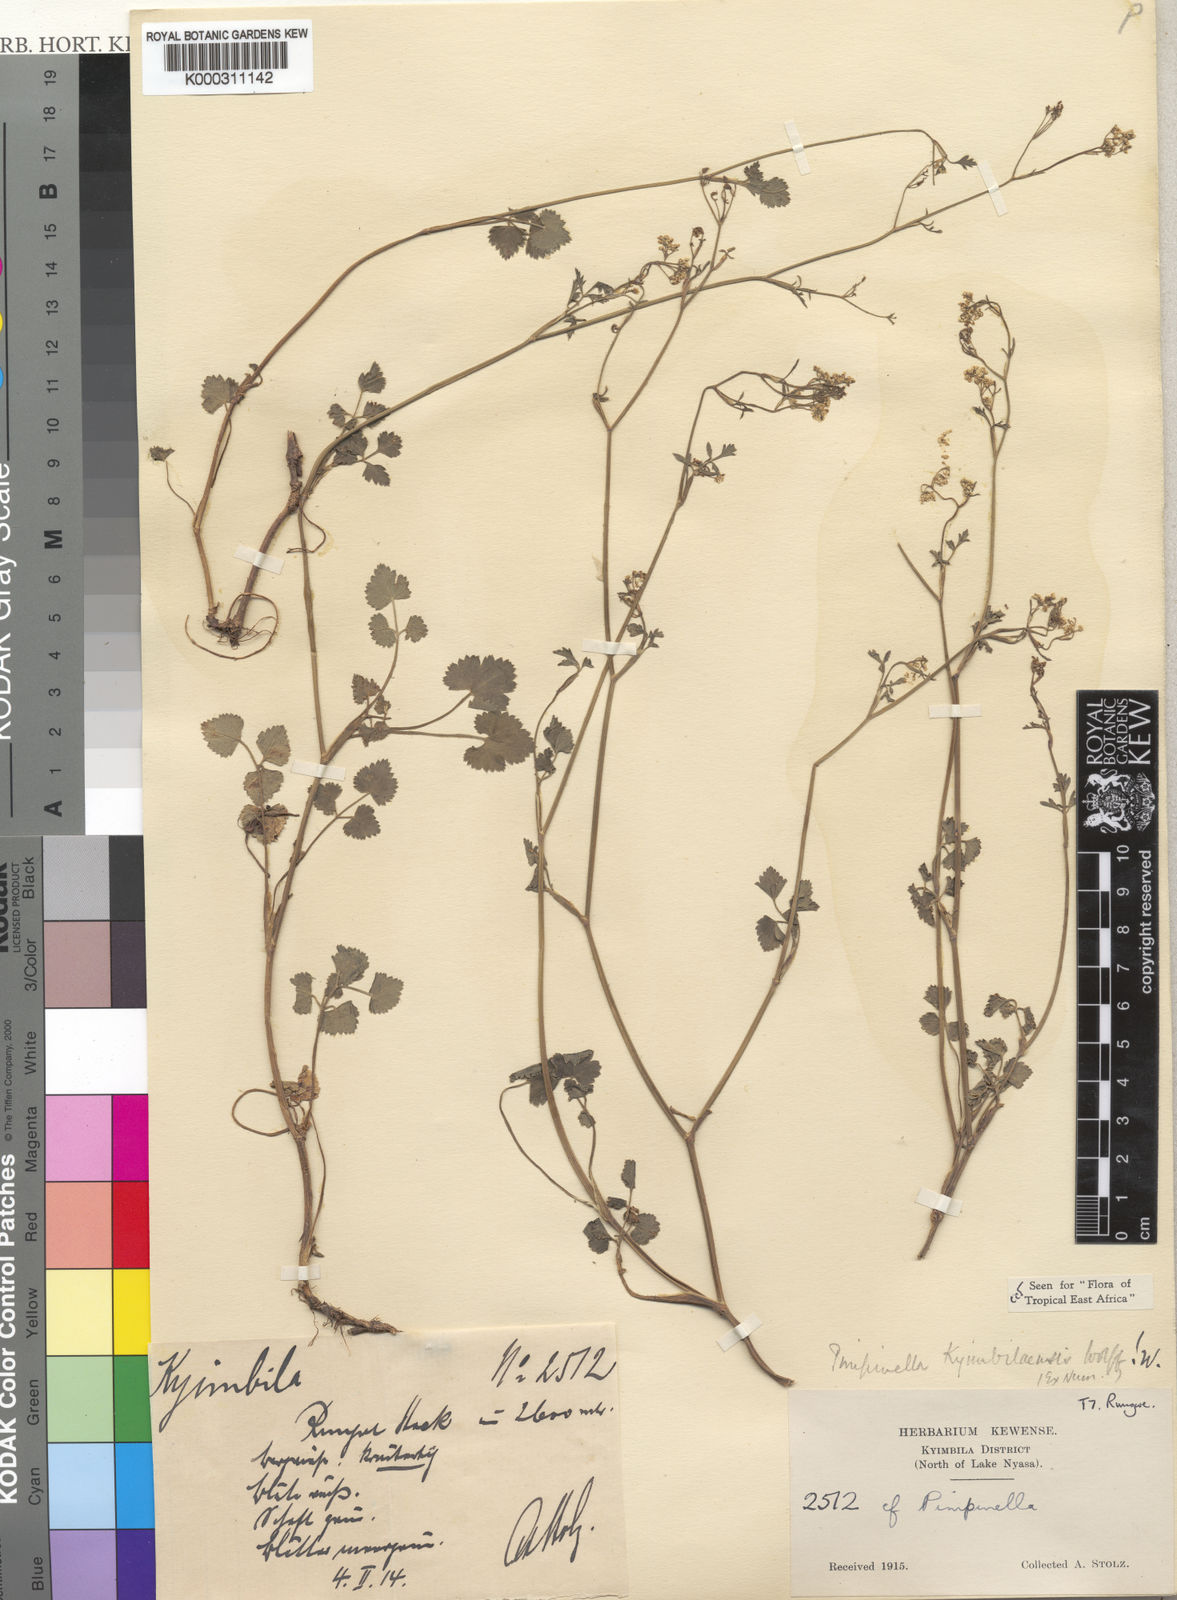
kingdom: Plantae
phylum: Tracheophyta
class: Magnoliopsida
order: Apiales
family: Apiaceae
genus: Pimpinella
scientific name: Pimpinella kyimbilaensis
